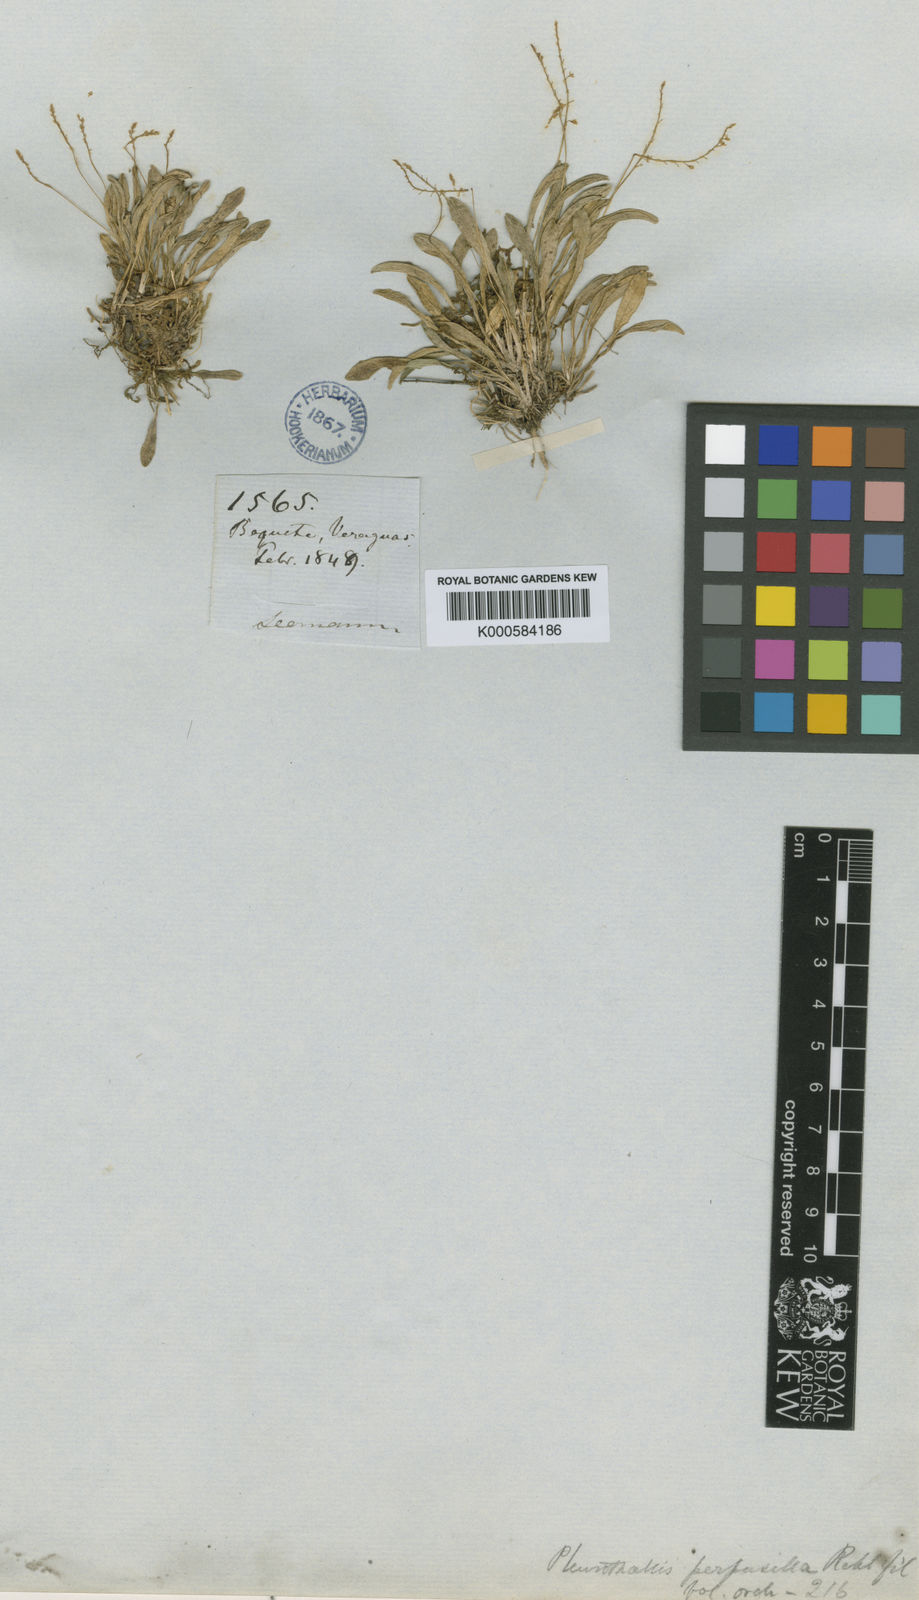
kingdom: Plantae
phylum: Tracheophyta
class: Liliopsida
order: Asparagales
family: Orchidaceae
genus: Platystele
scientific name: Platystele perpusilla
